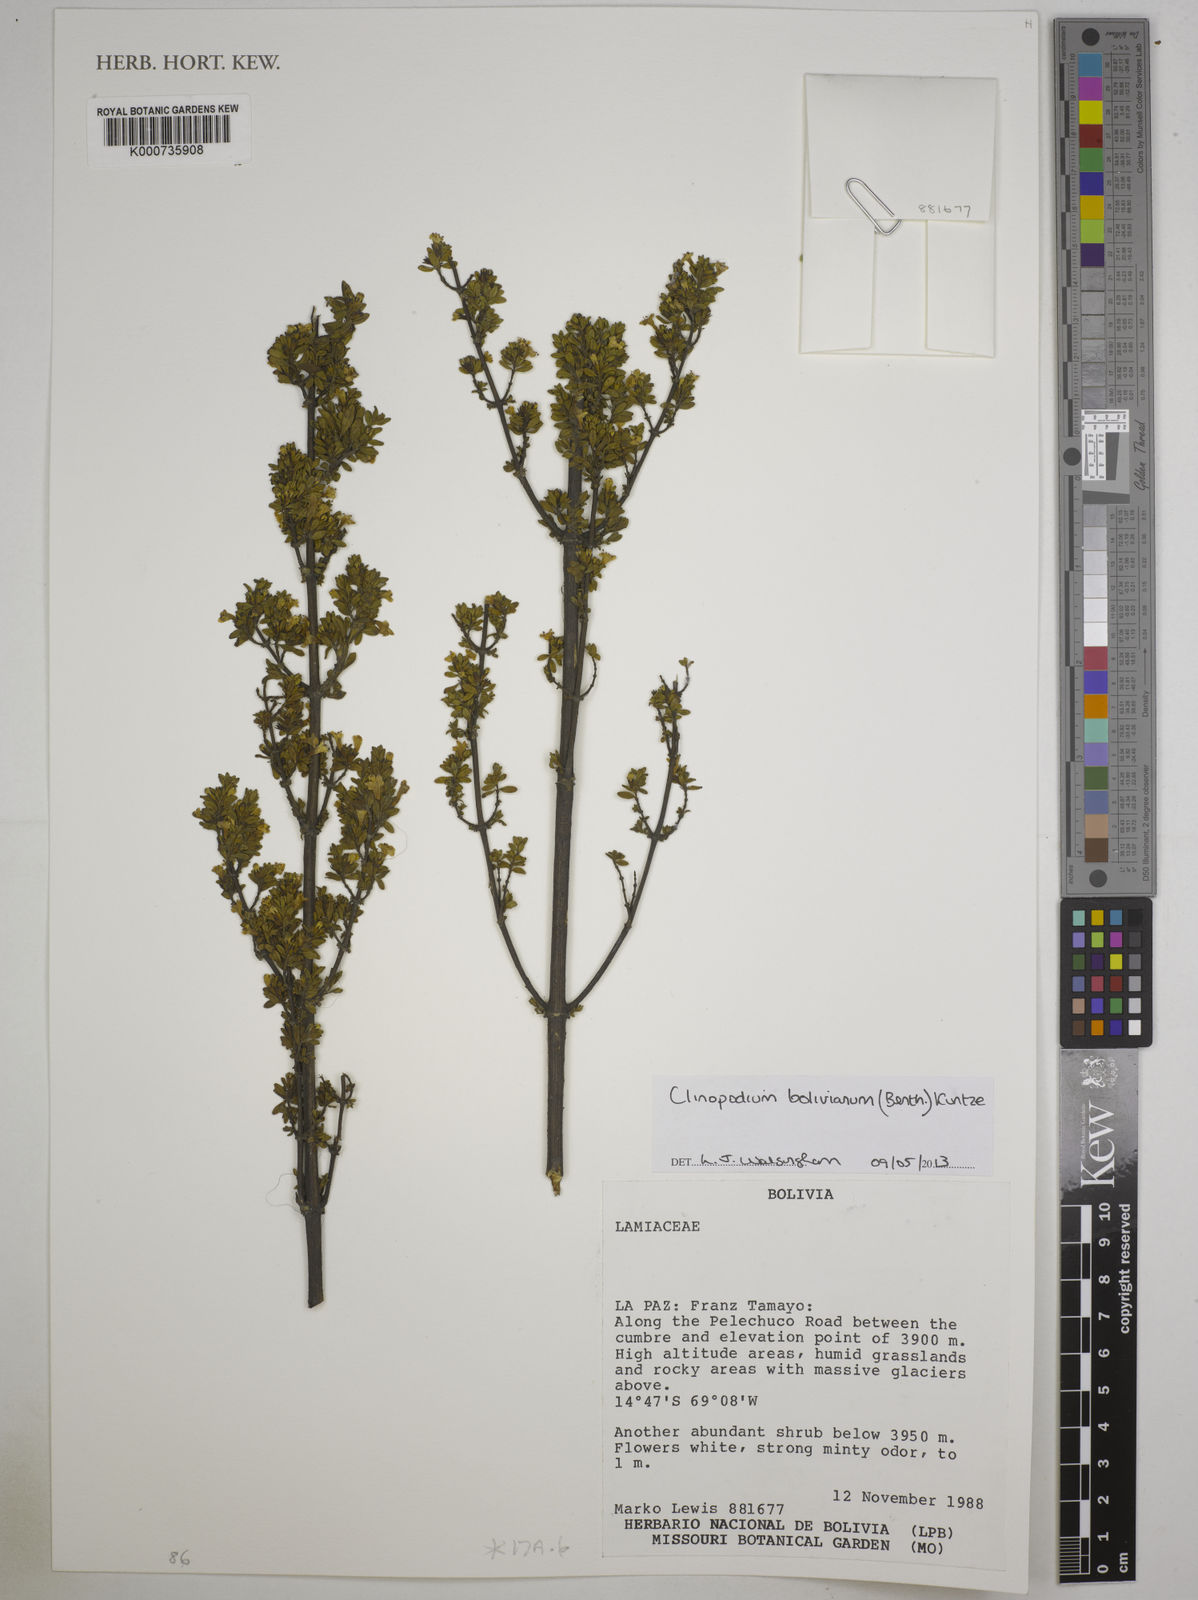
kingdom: Plantae
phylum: Tracheophyta
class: Magnoliopsida
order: Lamiales
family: Lamiaceae
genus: Clinopodium
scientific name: Clinopodium bolivianum
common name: Inca muña
